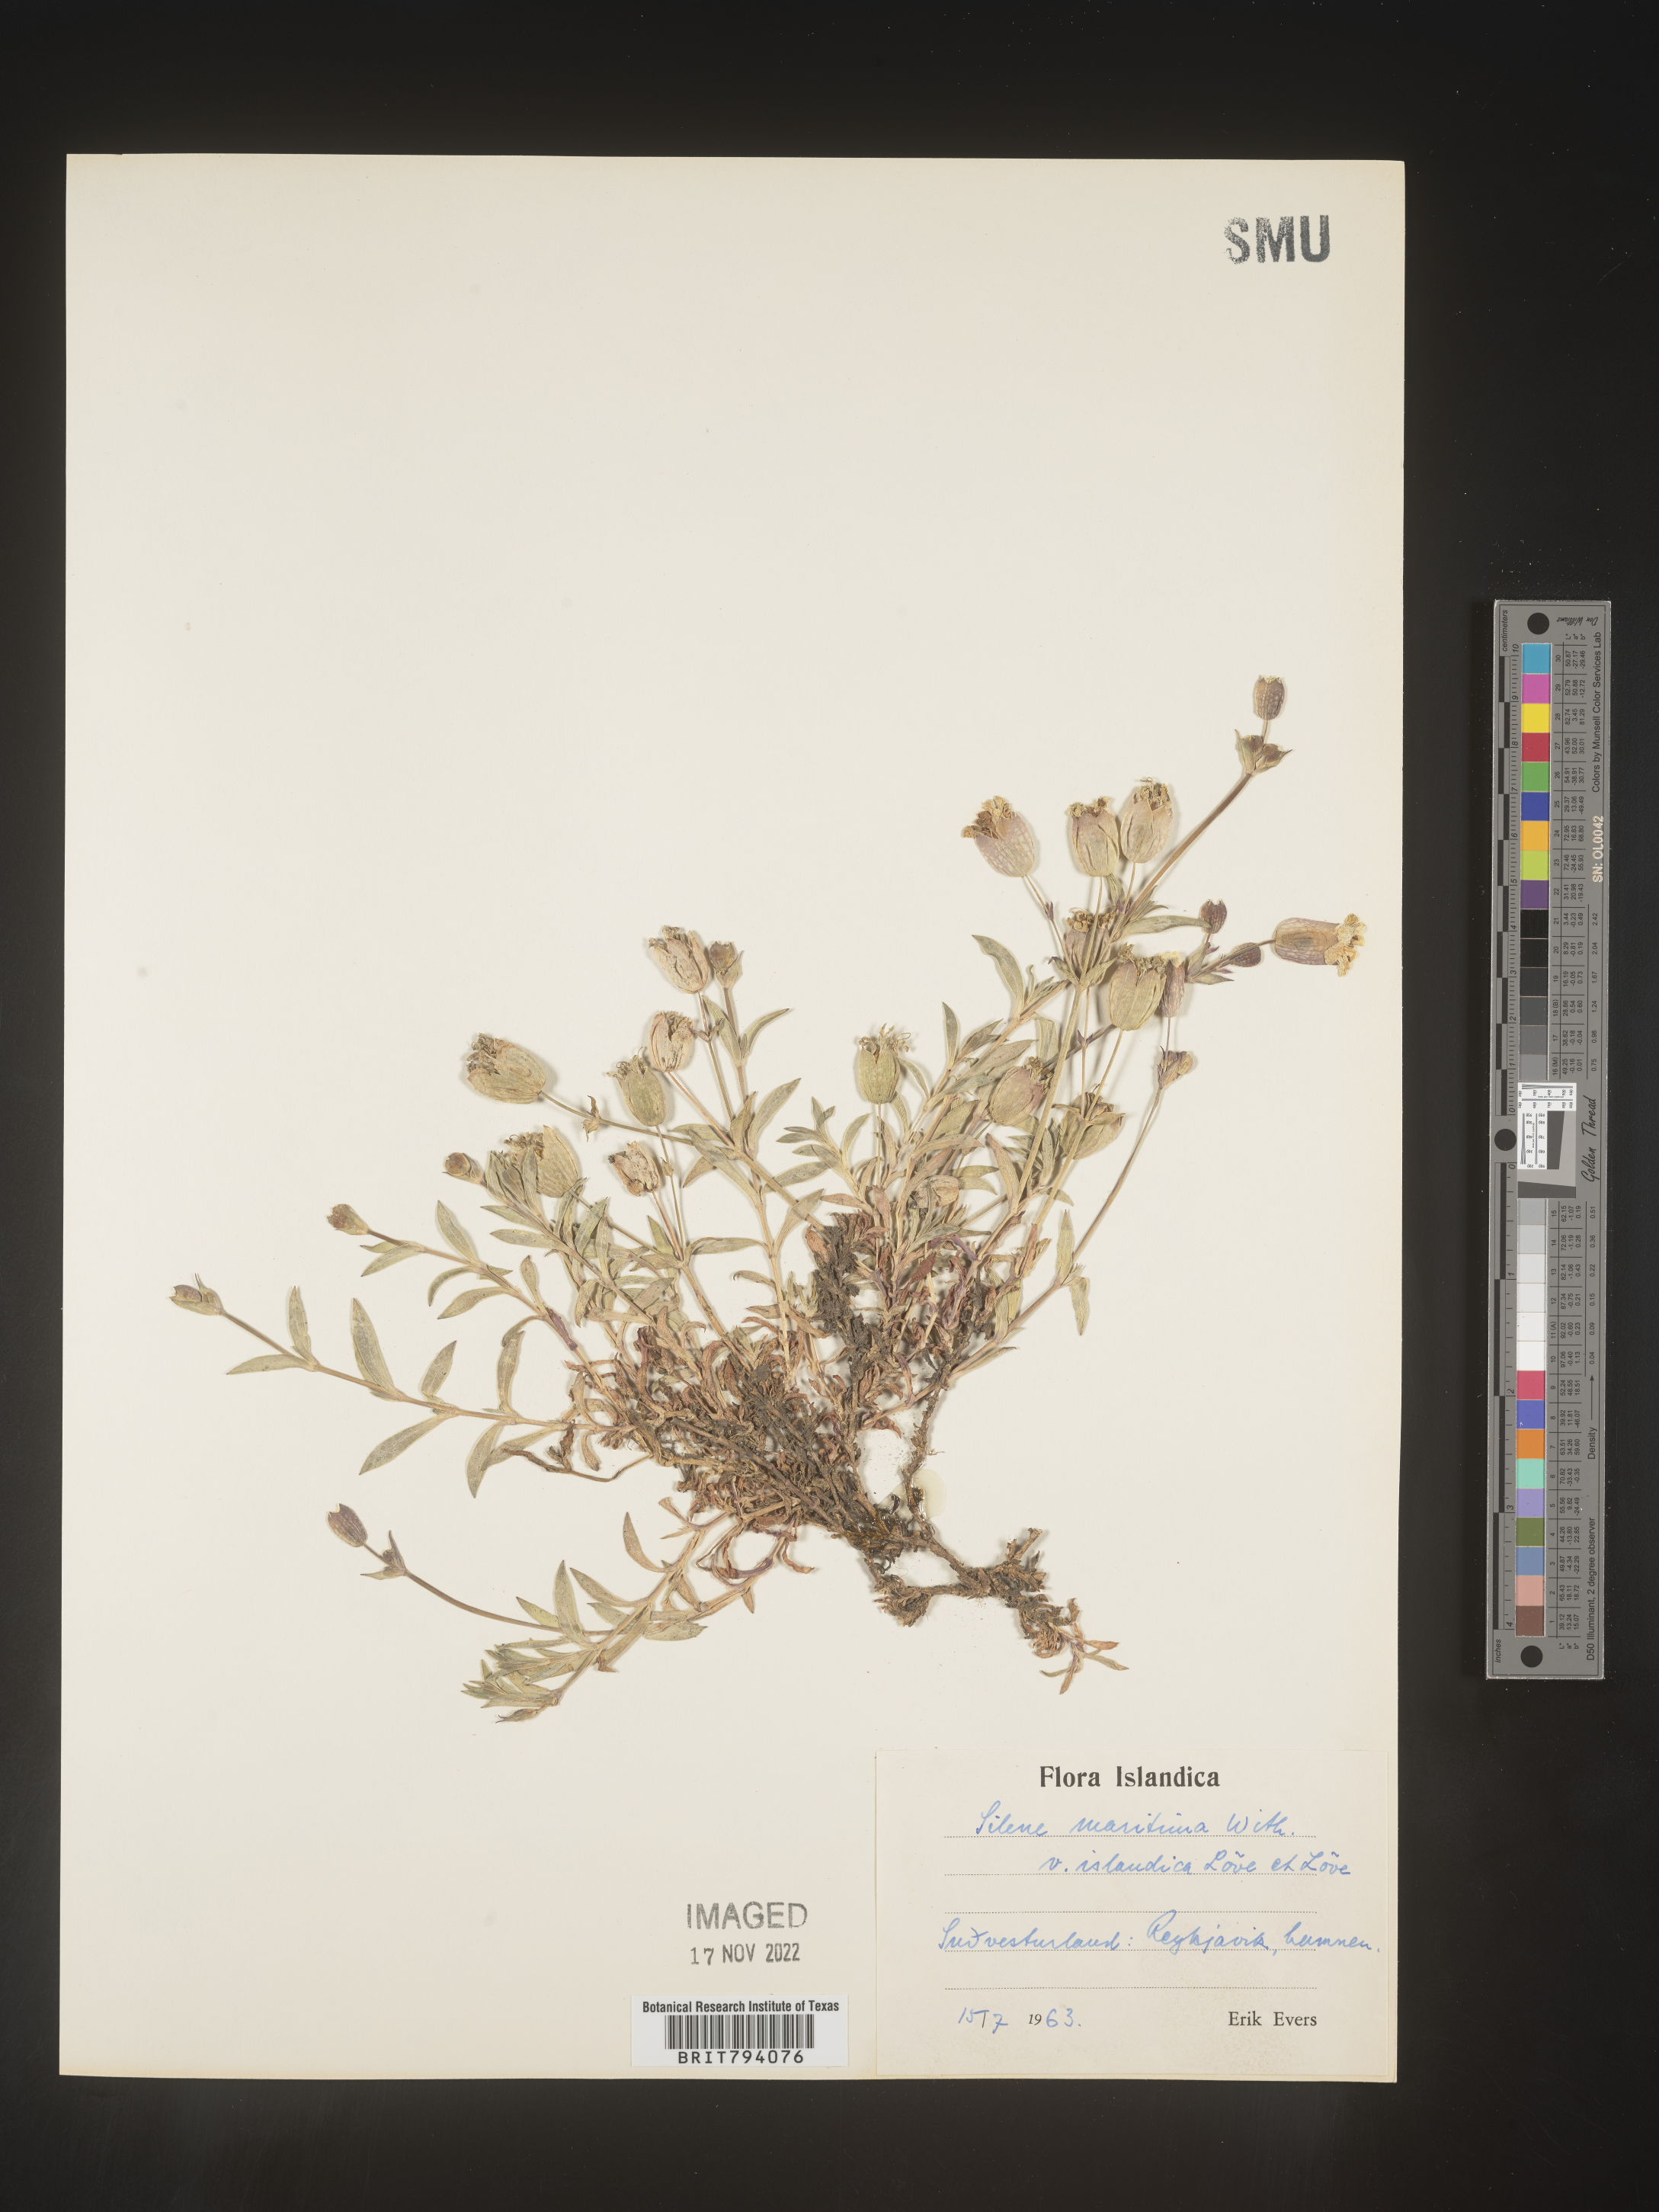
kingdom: Plantae
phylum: Tracheophyta
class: Magnoliopsida
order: Caryophyllales
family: Caryophyllaceae
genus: Silene
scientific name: Silene uniflora
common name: Sea campion
